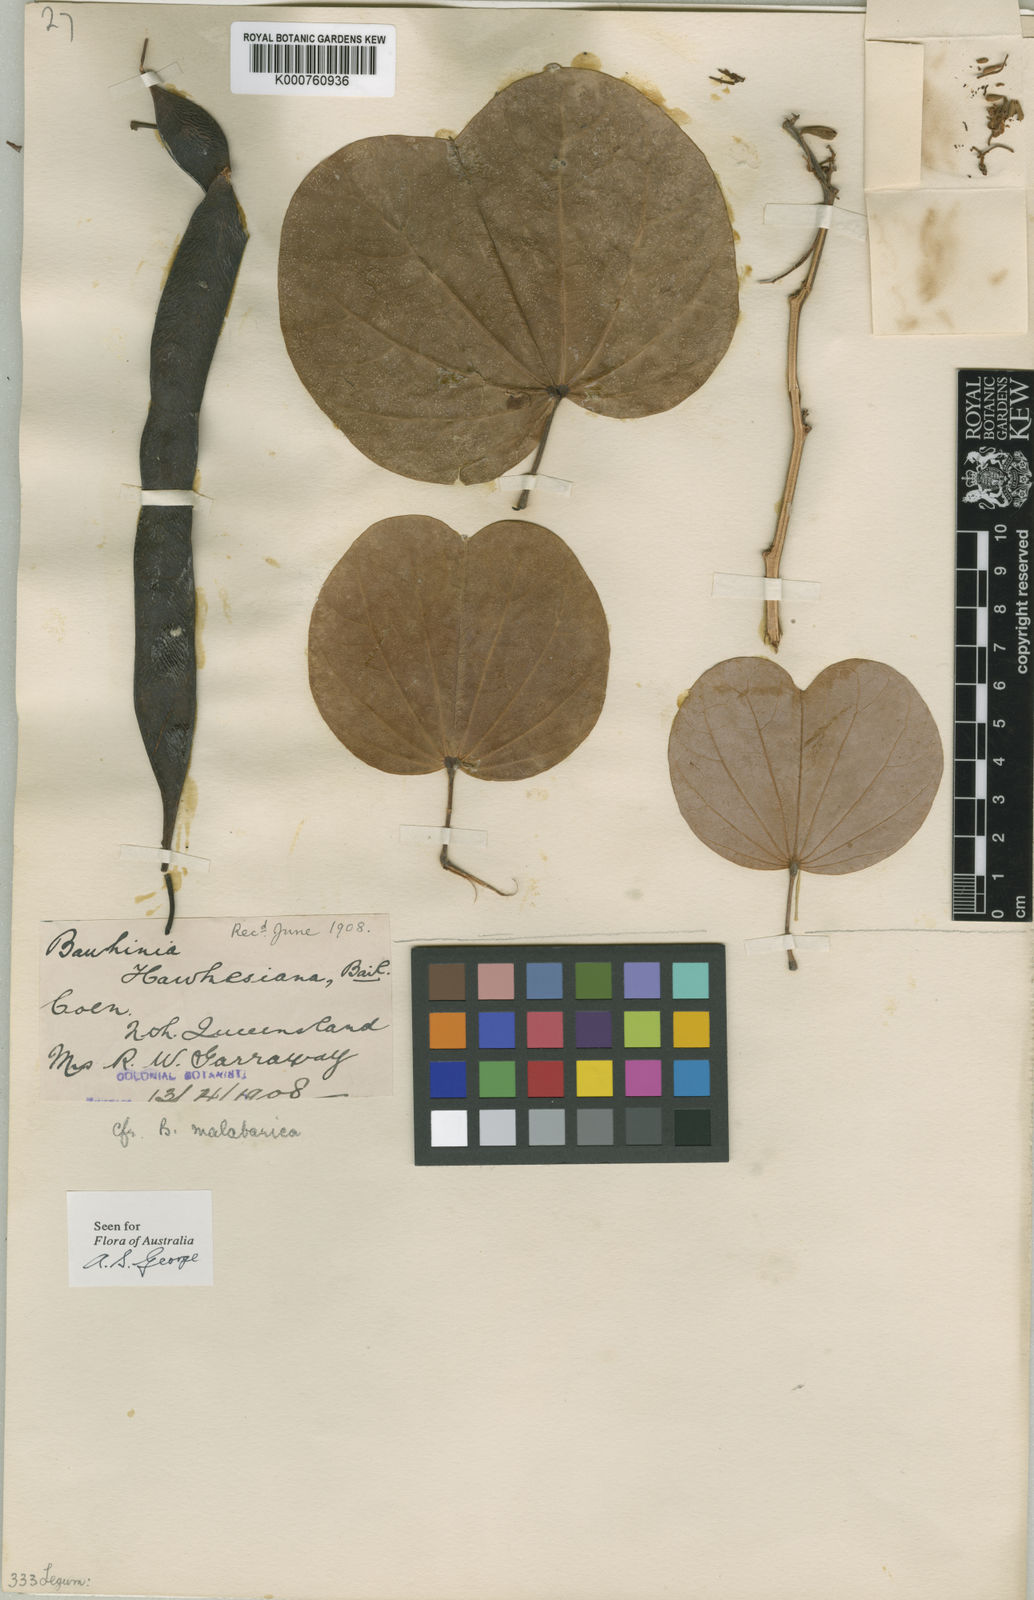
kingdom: Plantae
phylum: Tracheophyta
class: Magnoliopsida
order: Fabales
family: Fabaceae
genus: Piliostigma
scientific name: Piliostigma malabaricum
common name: Malabar bauhinia
